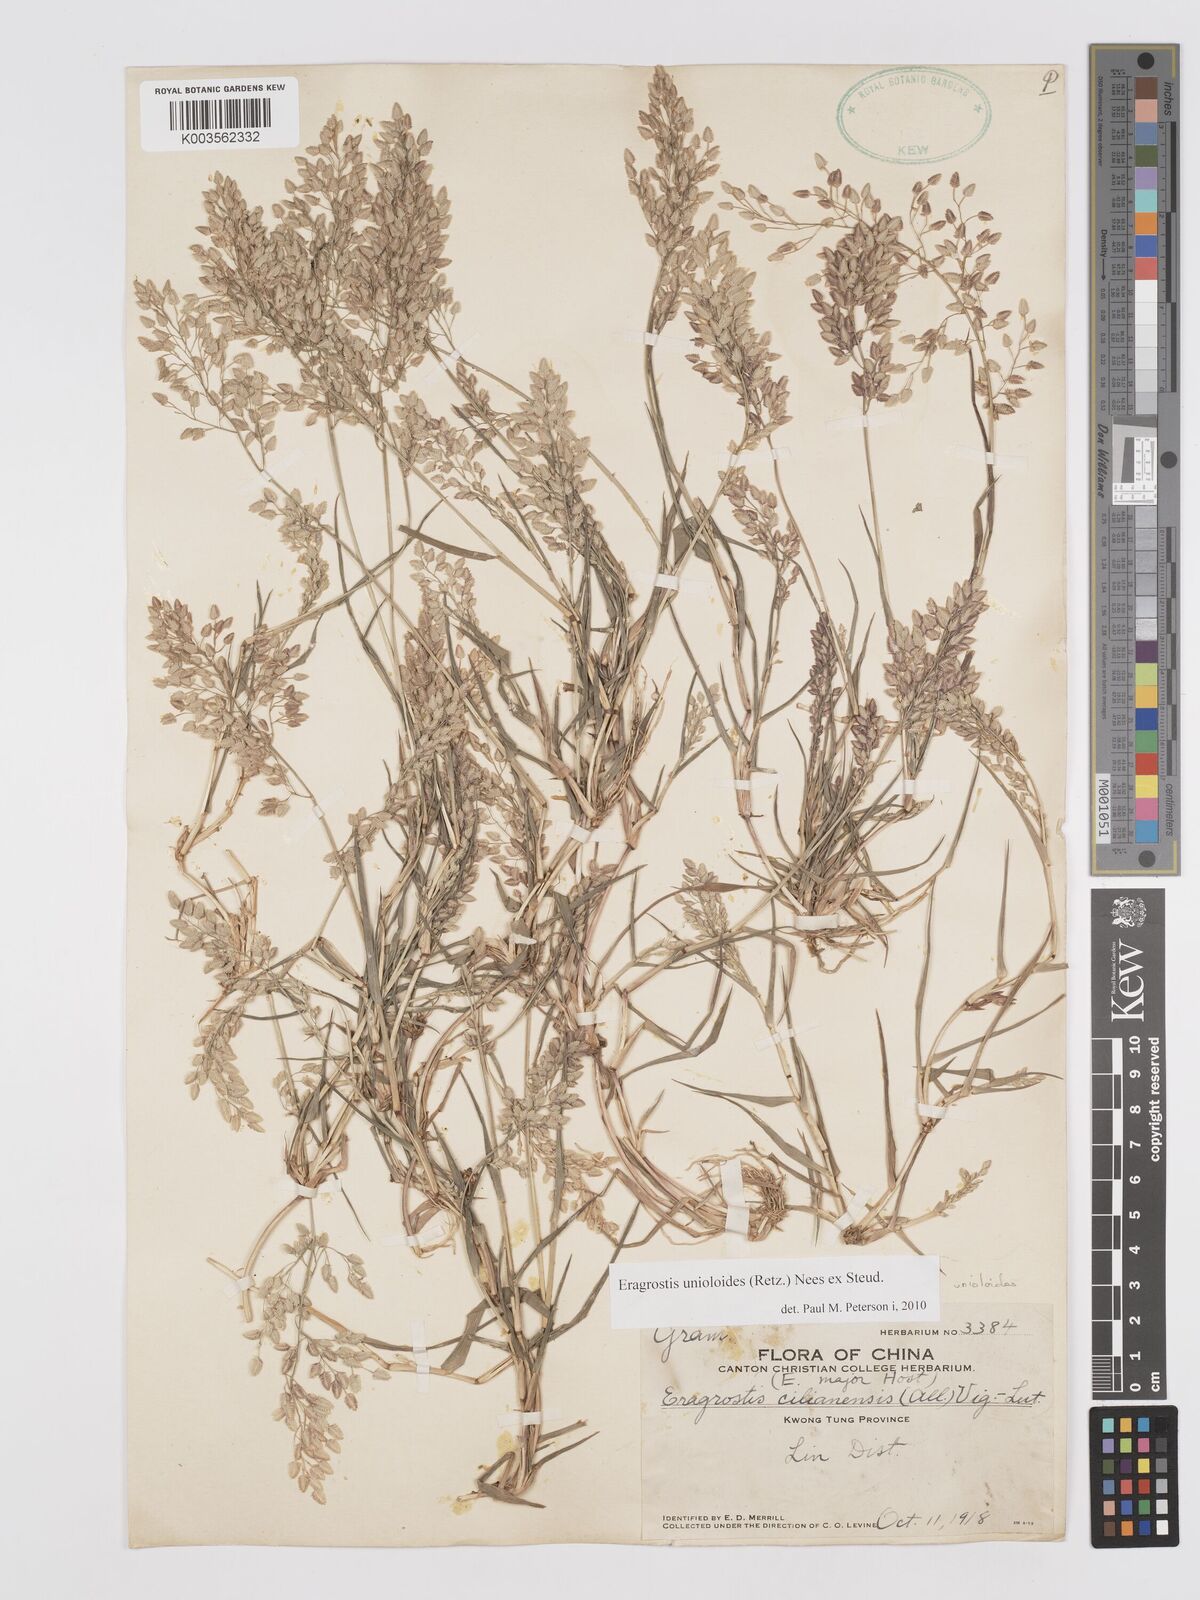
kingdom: Plantae
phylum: Tracheophyta
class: Liliopsida
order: Poales
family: Poaceae
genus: Eragrostis
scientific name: Eragrostis unioloides
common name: Chinese lovegrass
